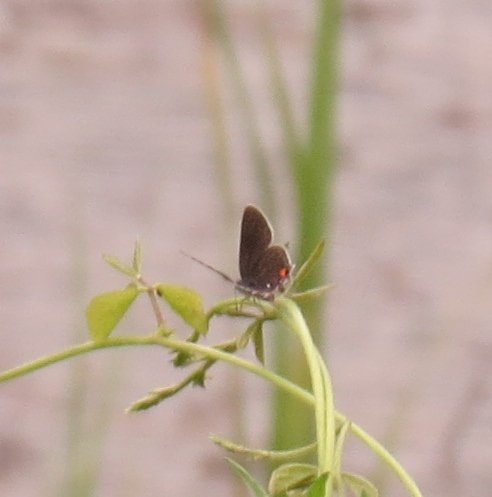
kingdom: Animalia
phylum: Arthropoda
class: Insecta
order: Lepidoptera
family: Lycaenidae
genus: Strymon
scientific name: Strymon melinus
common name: Gray Hairstreak
